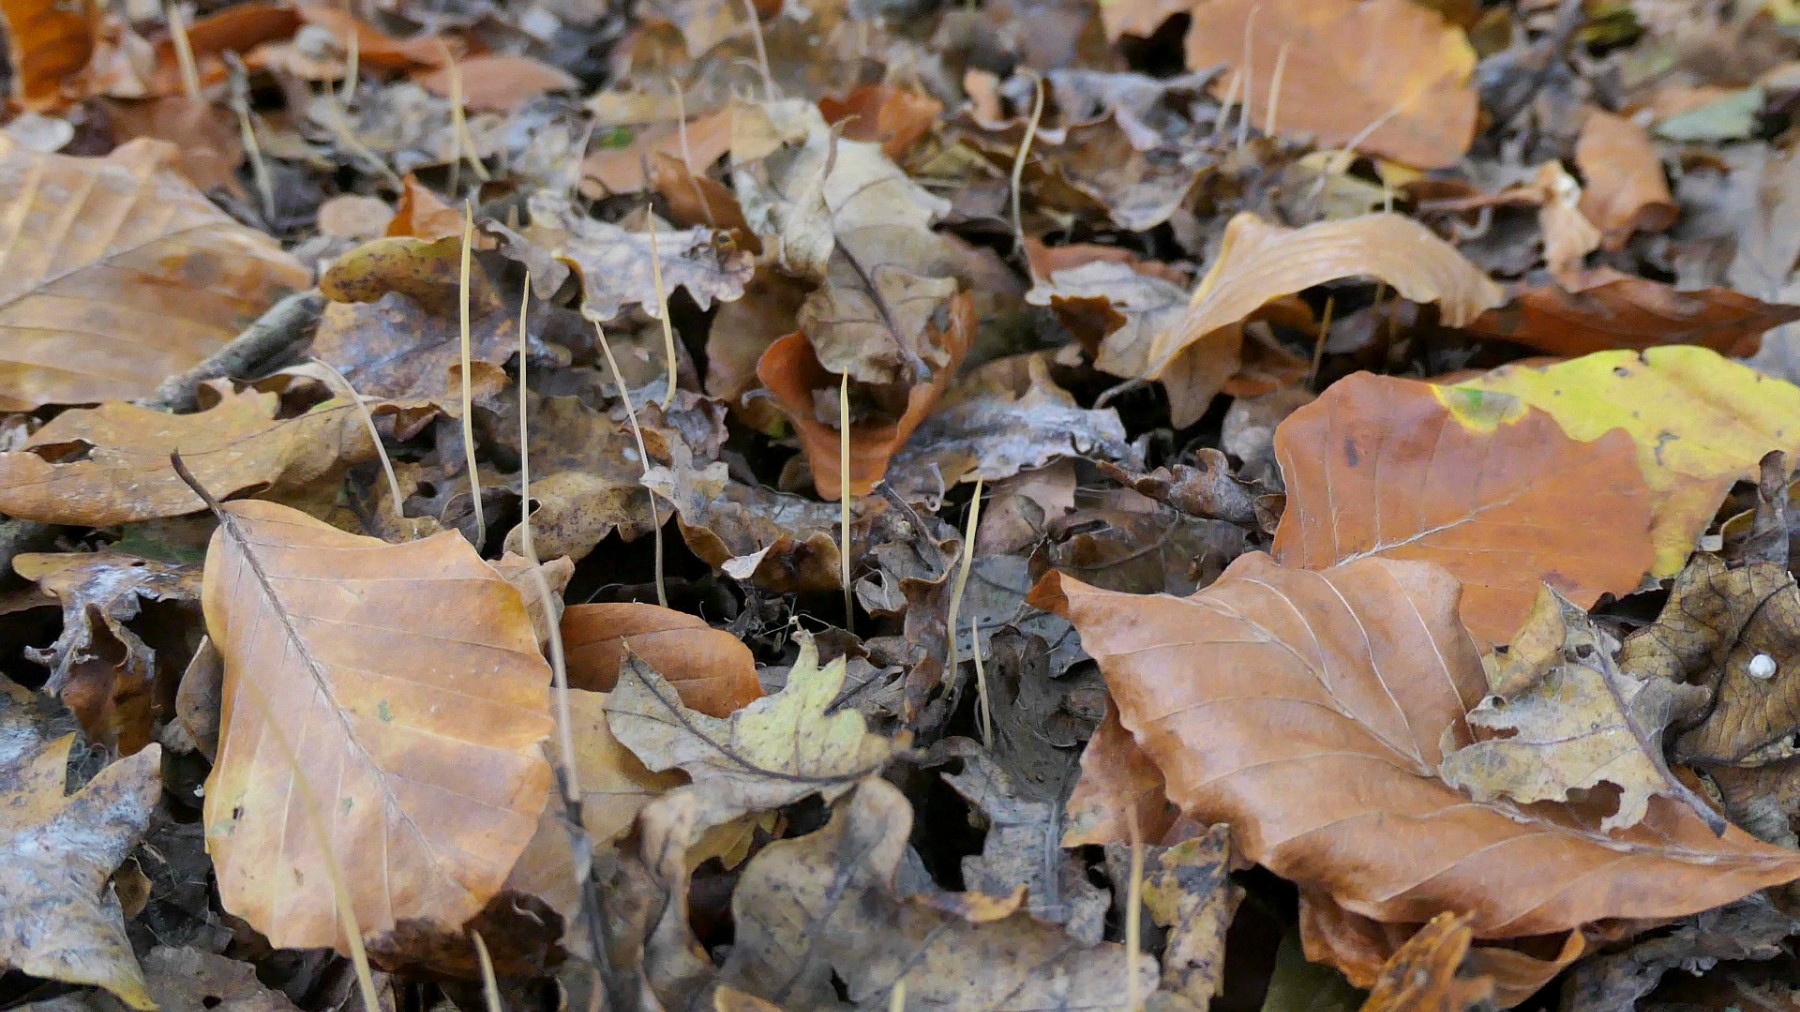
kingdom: Fungi
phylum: Basidiomycota
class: Agaricomycetes
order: Agaricales
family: Typhulaceae
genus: Typhula
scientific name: Typhula juncea
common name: trådagtig rørkølle
